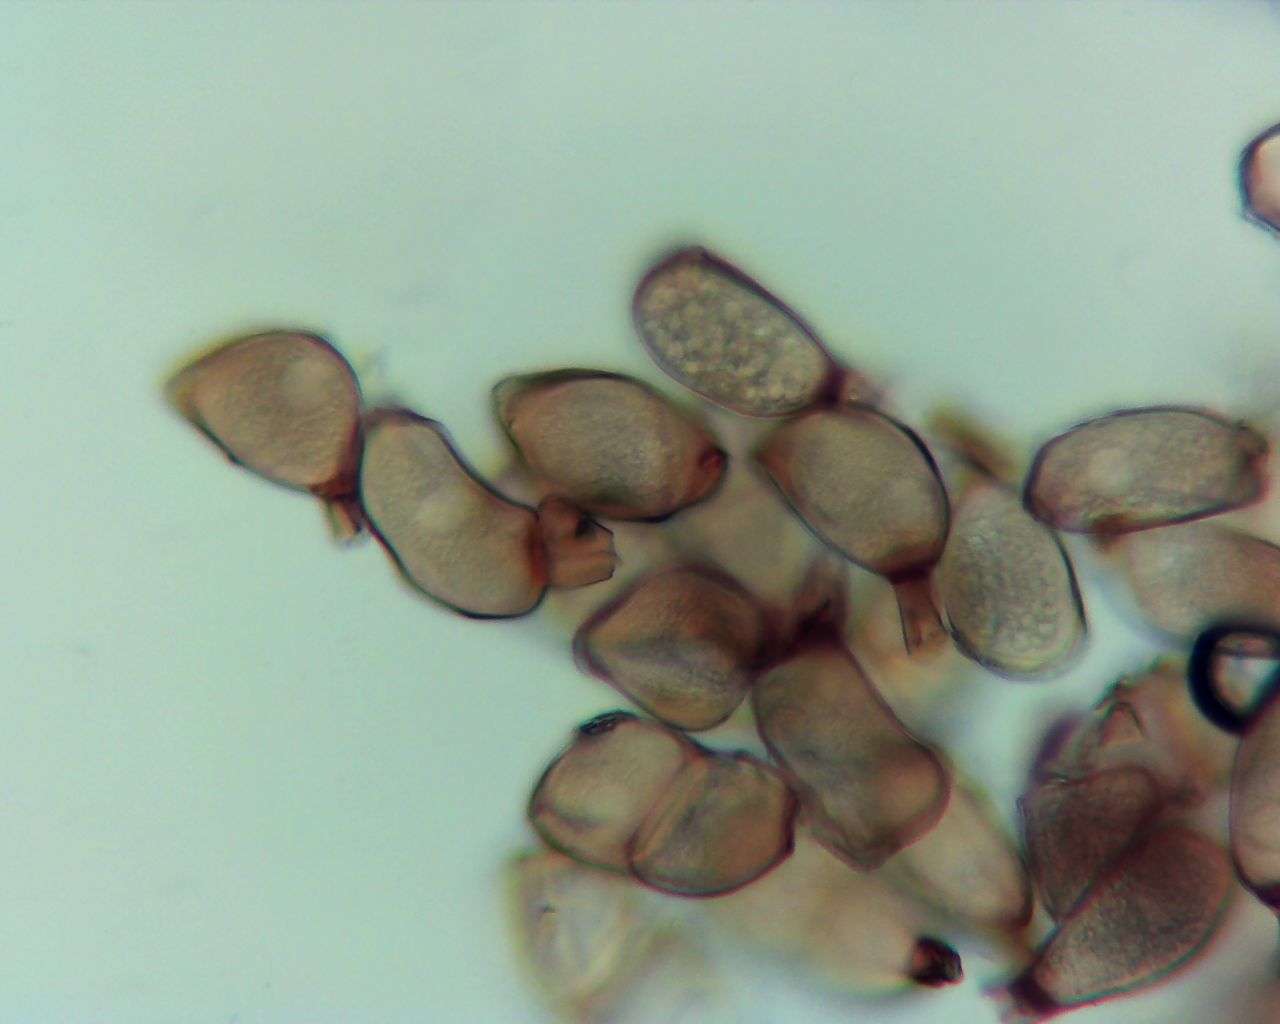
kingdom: Fungi
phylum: Basidiomycota
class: Pucciniomycetes
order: Pucciniales
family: Pucciniaceae
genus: Peristemma
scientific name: Peristemma pseudosphaeria
